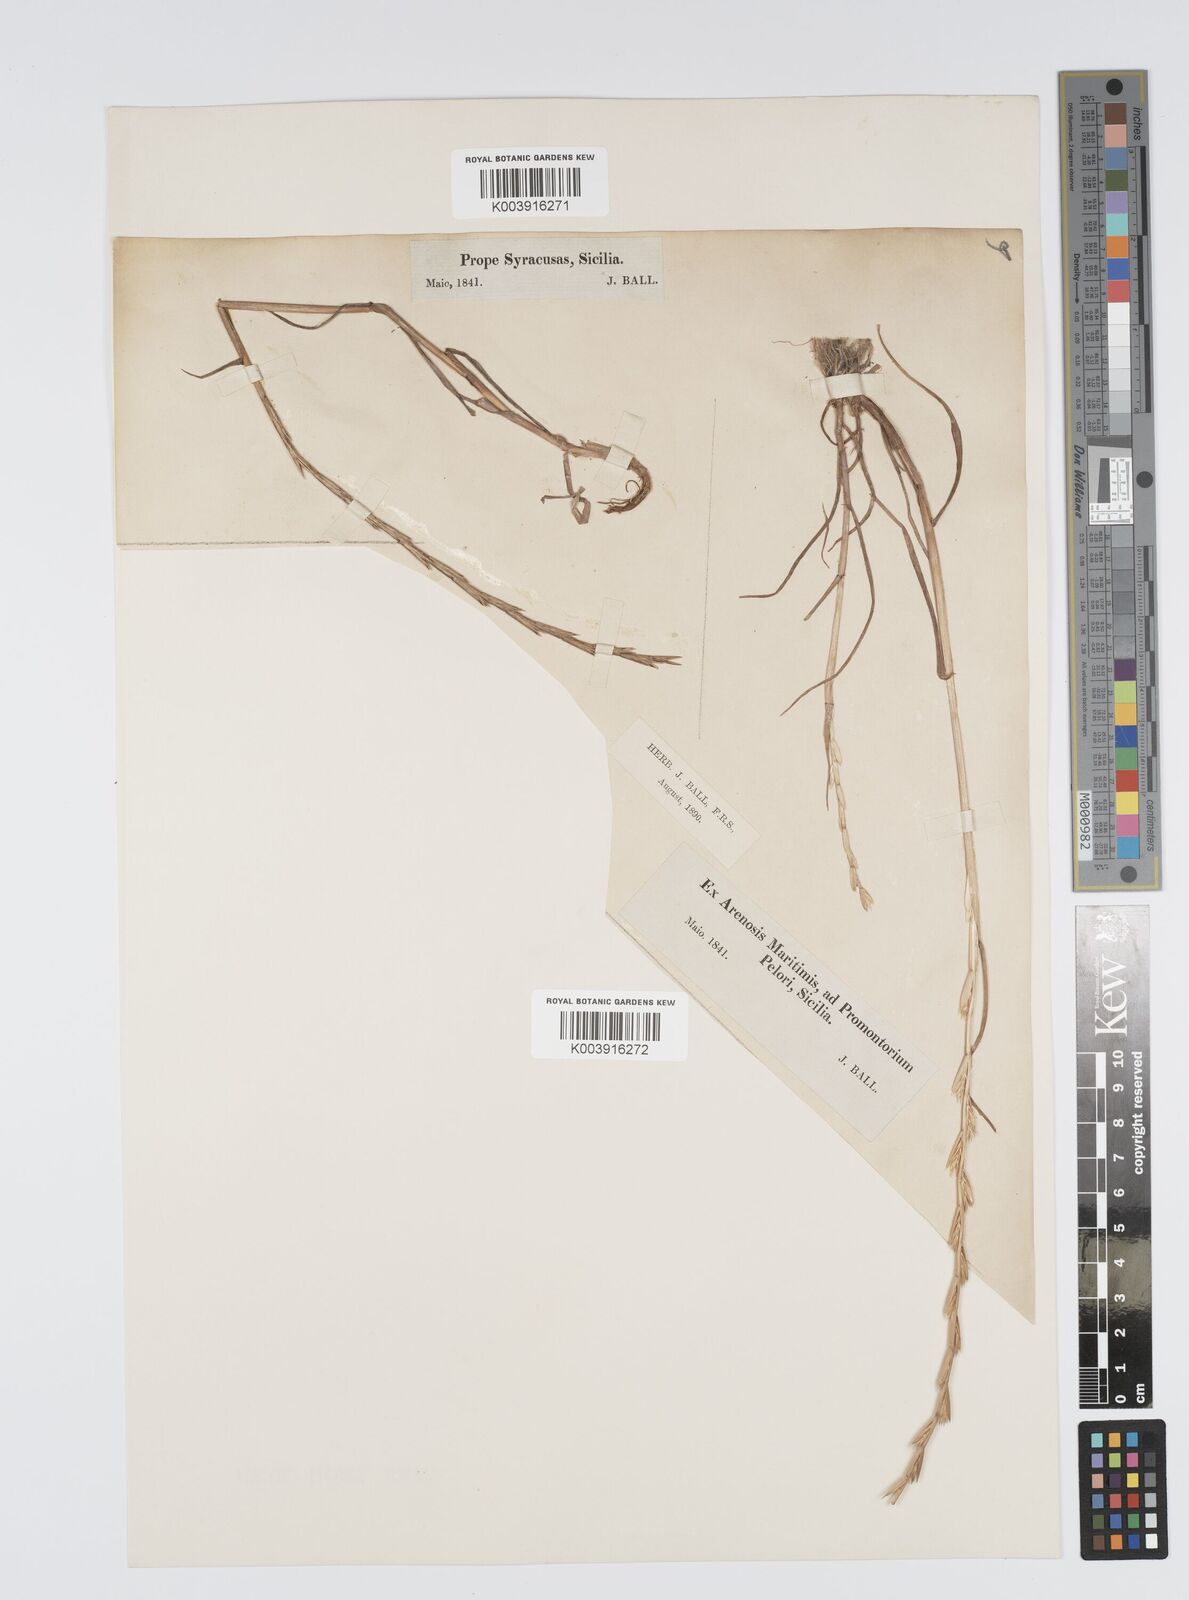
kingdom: Plantae
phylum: Tracheophyta
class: Liliopsida
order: Poales
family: Poaceae
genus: Lolium
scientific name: Lolium rigidum
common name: Wimmera ryegrass
